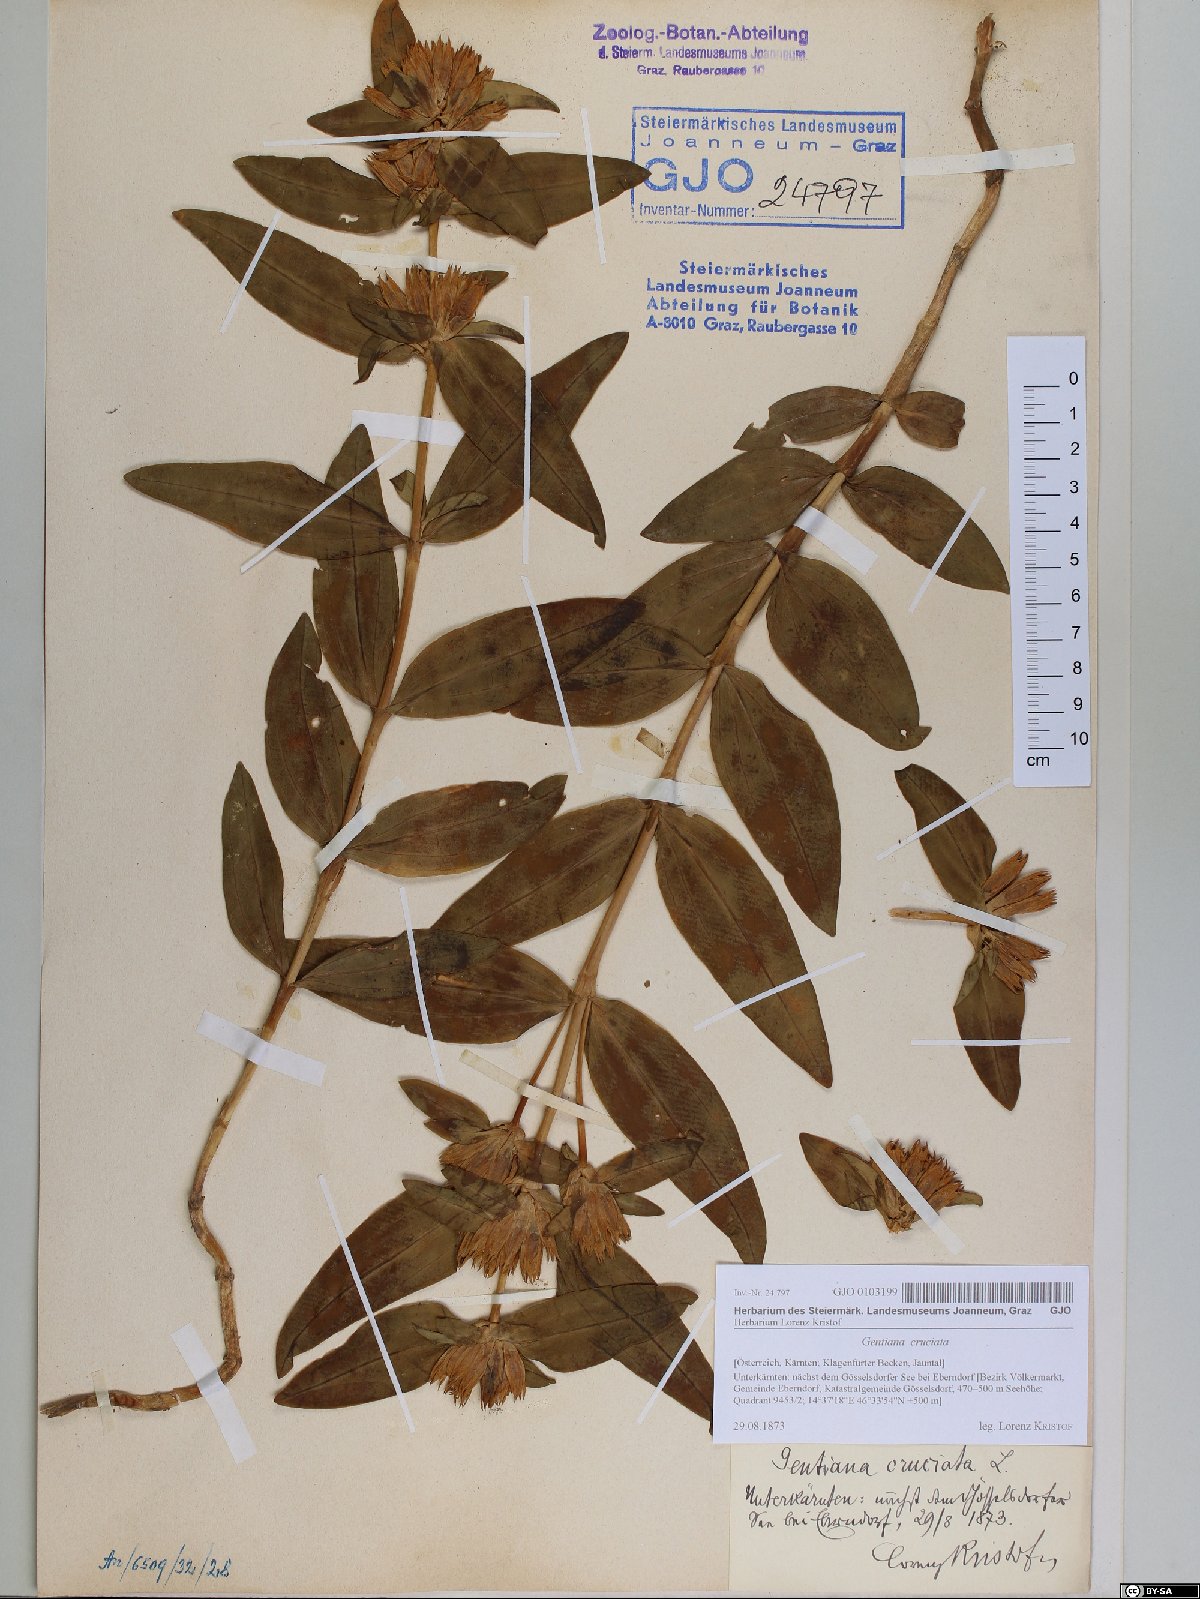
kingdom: Plantae
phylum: Tracheophyta
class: Magnoliopsida
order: Gentianales
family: Gentianaceae
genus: Gentiana
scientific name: Gentiana cruciata
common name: Cross gentian
